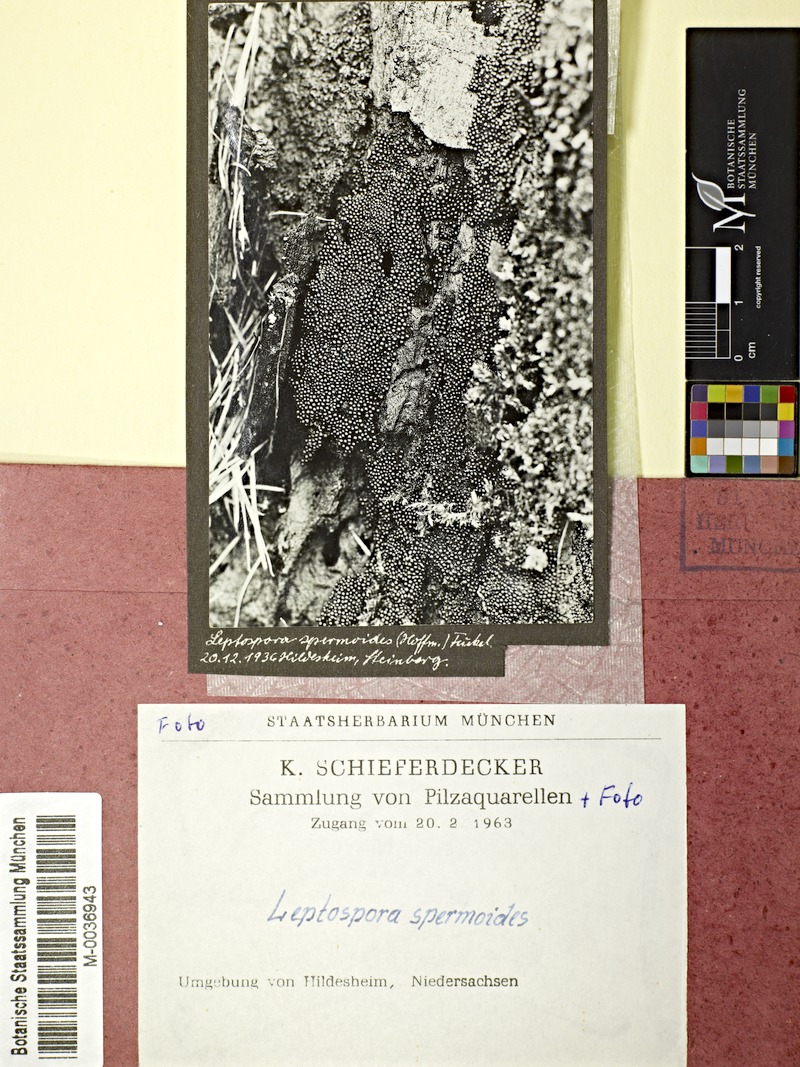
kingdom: Fungi
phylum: Ascomycota
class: Sordariomycetes
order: Sordariales
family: Helminthosphaeriaceae
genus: Ruzenia
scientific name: Ruzenia spermoides
